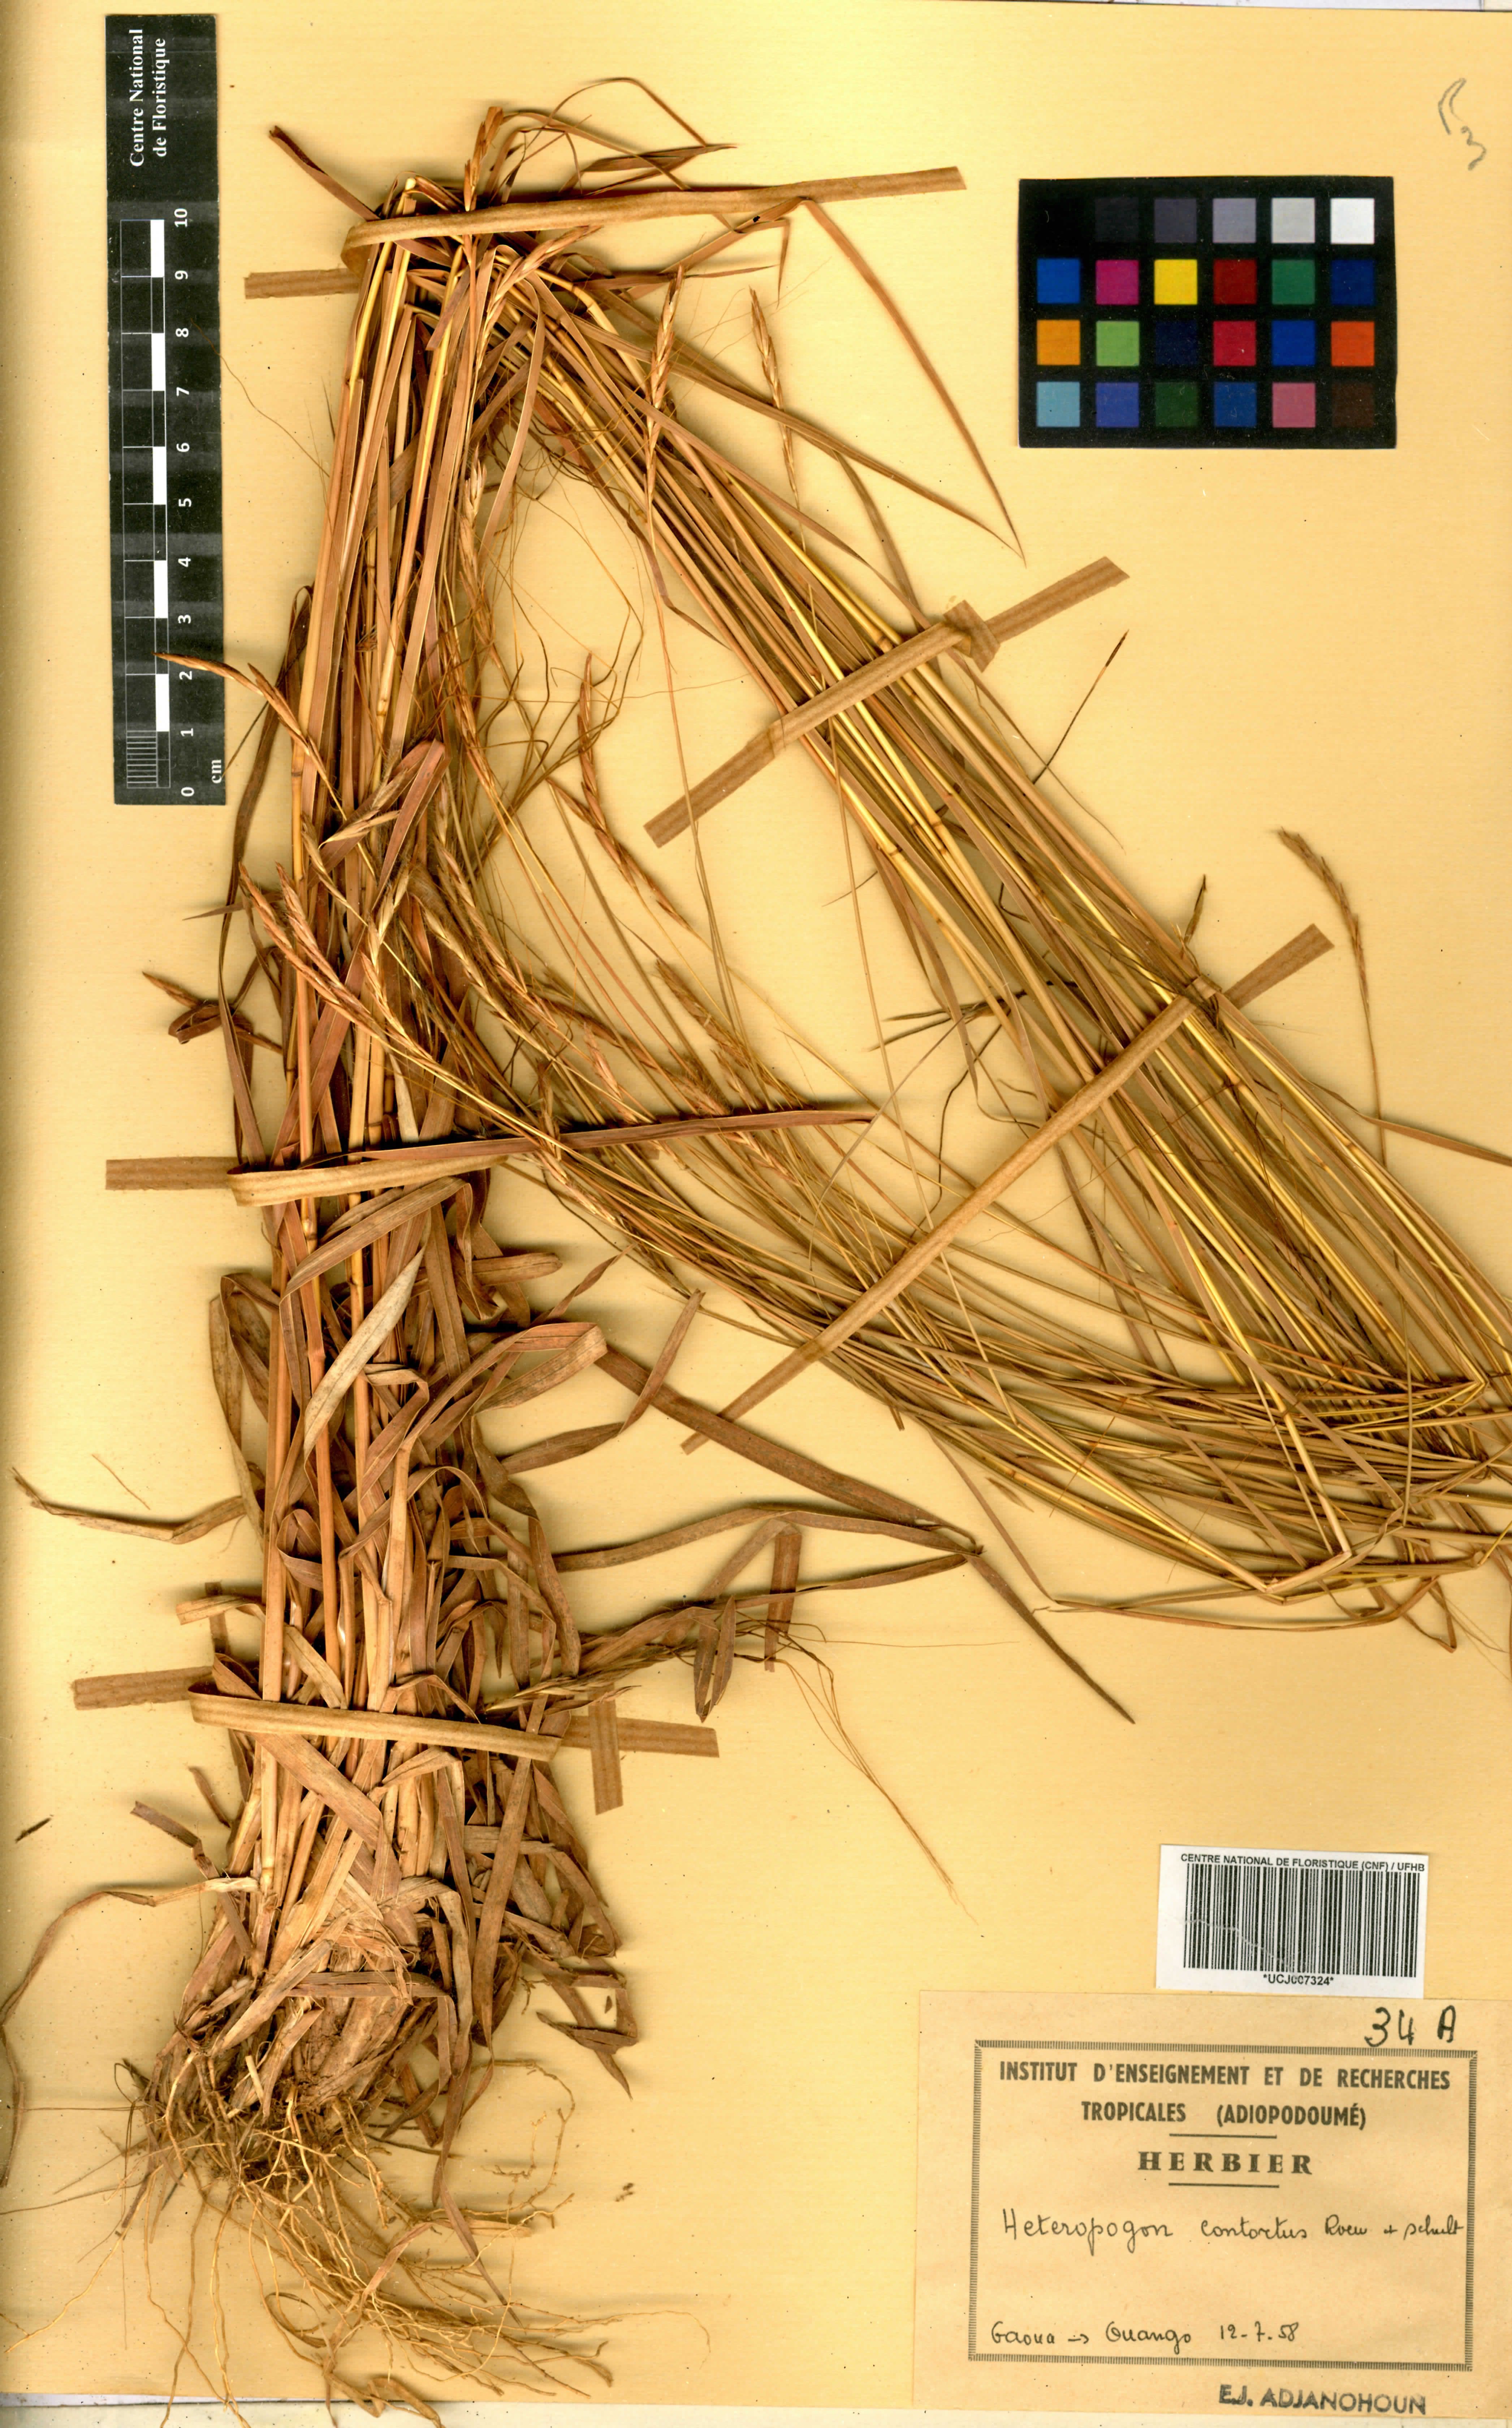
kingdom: Plantae
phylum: Tracheophyta
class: Liliopsida
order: Poales
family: Poaceae
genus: Heteropogon
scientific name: Heteropogon contortus
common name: Tanglehead
